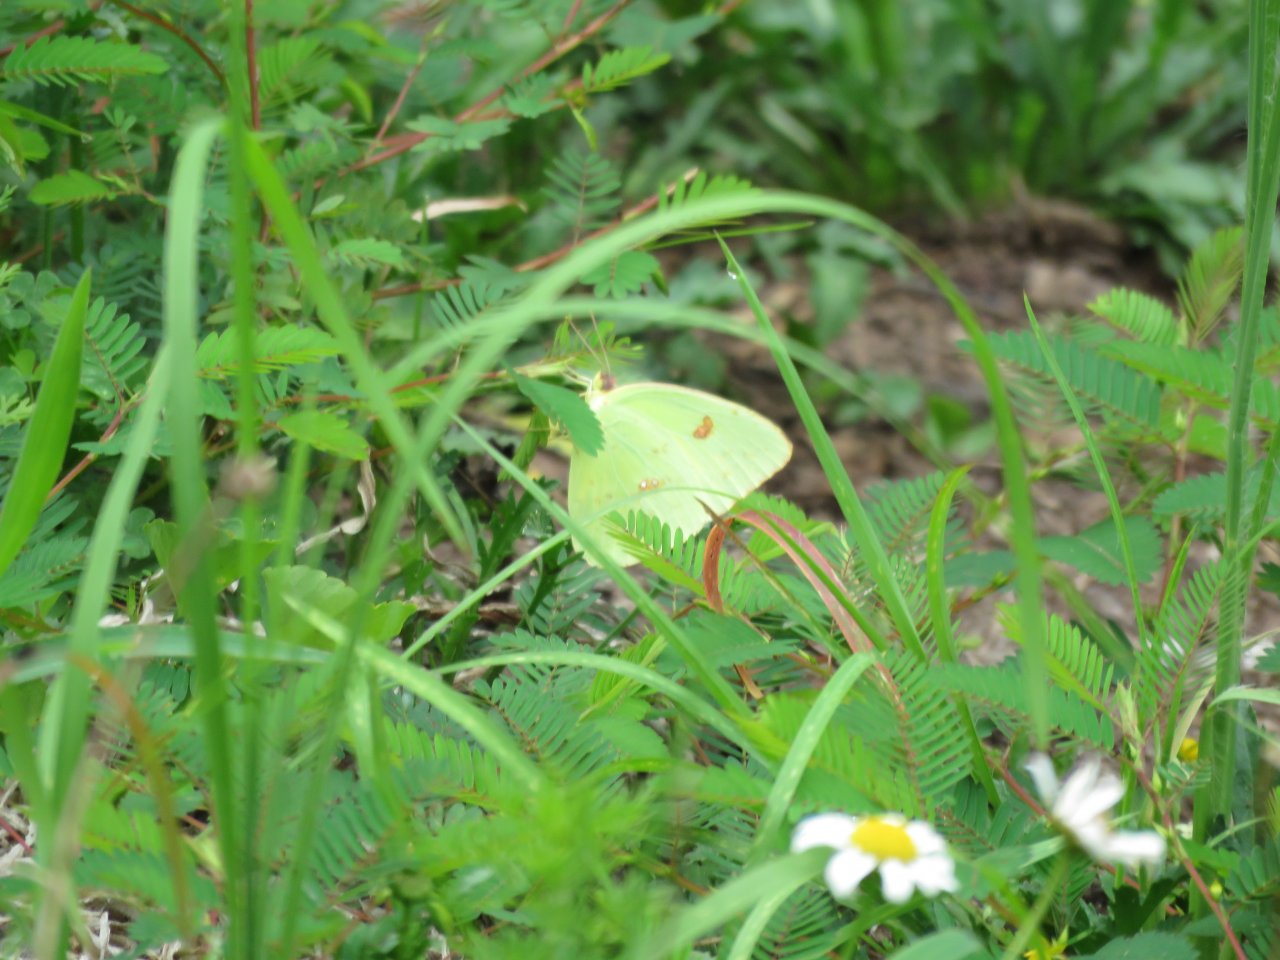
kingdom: Animalia
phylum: Arthropoda
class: Insecta
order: Lepidoptera
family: Pieridae
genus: Phoebis
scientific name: Phoebis sennae
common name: Cloudless Sulphur
